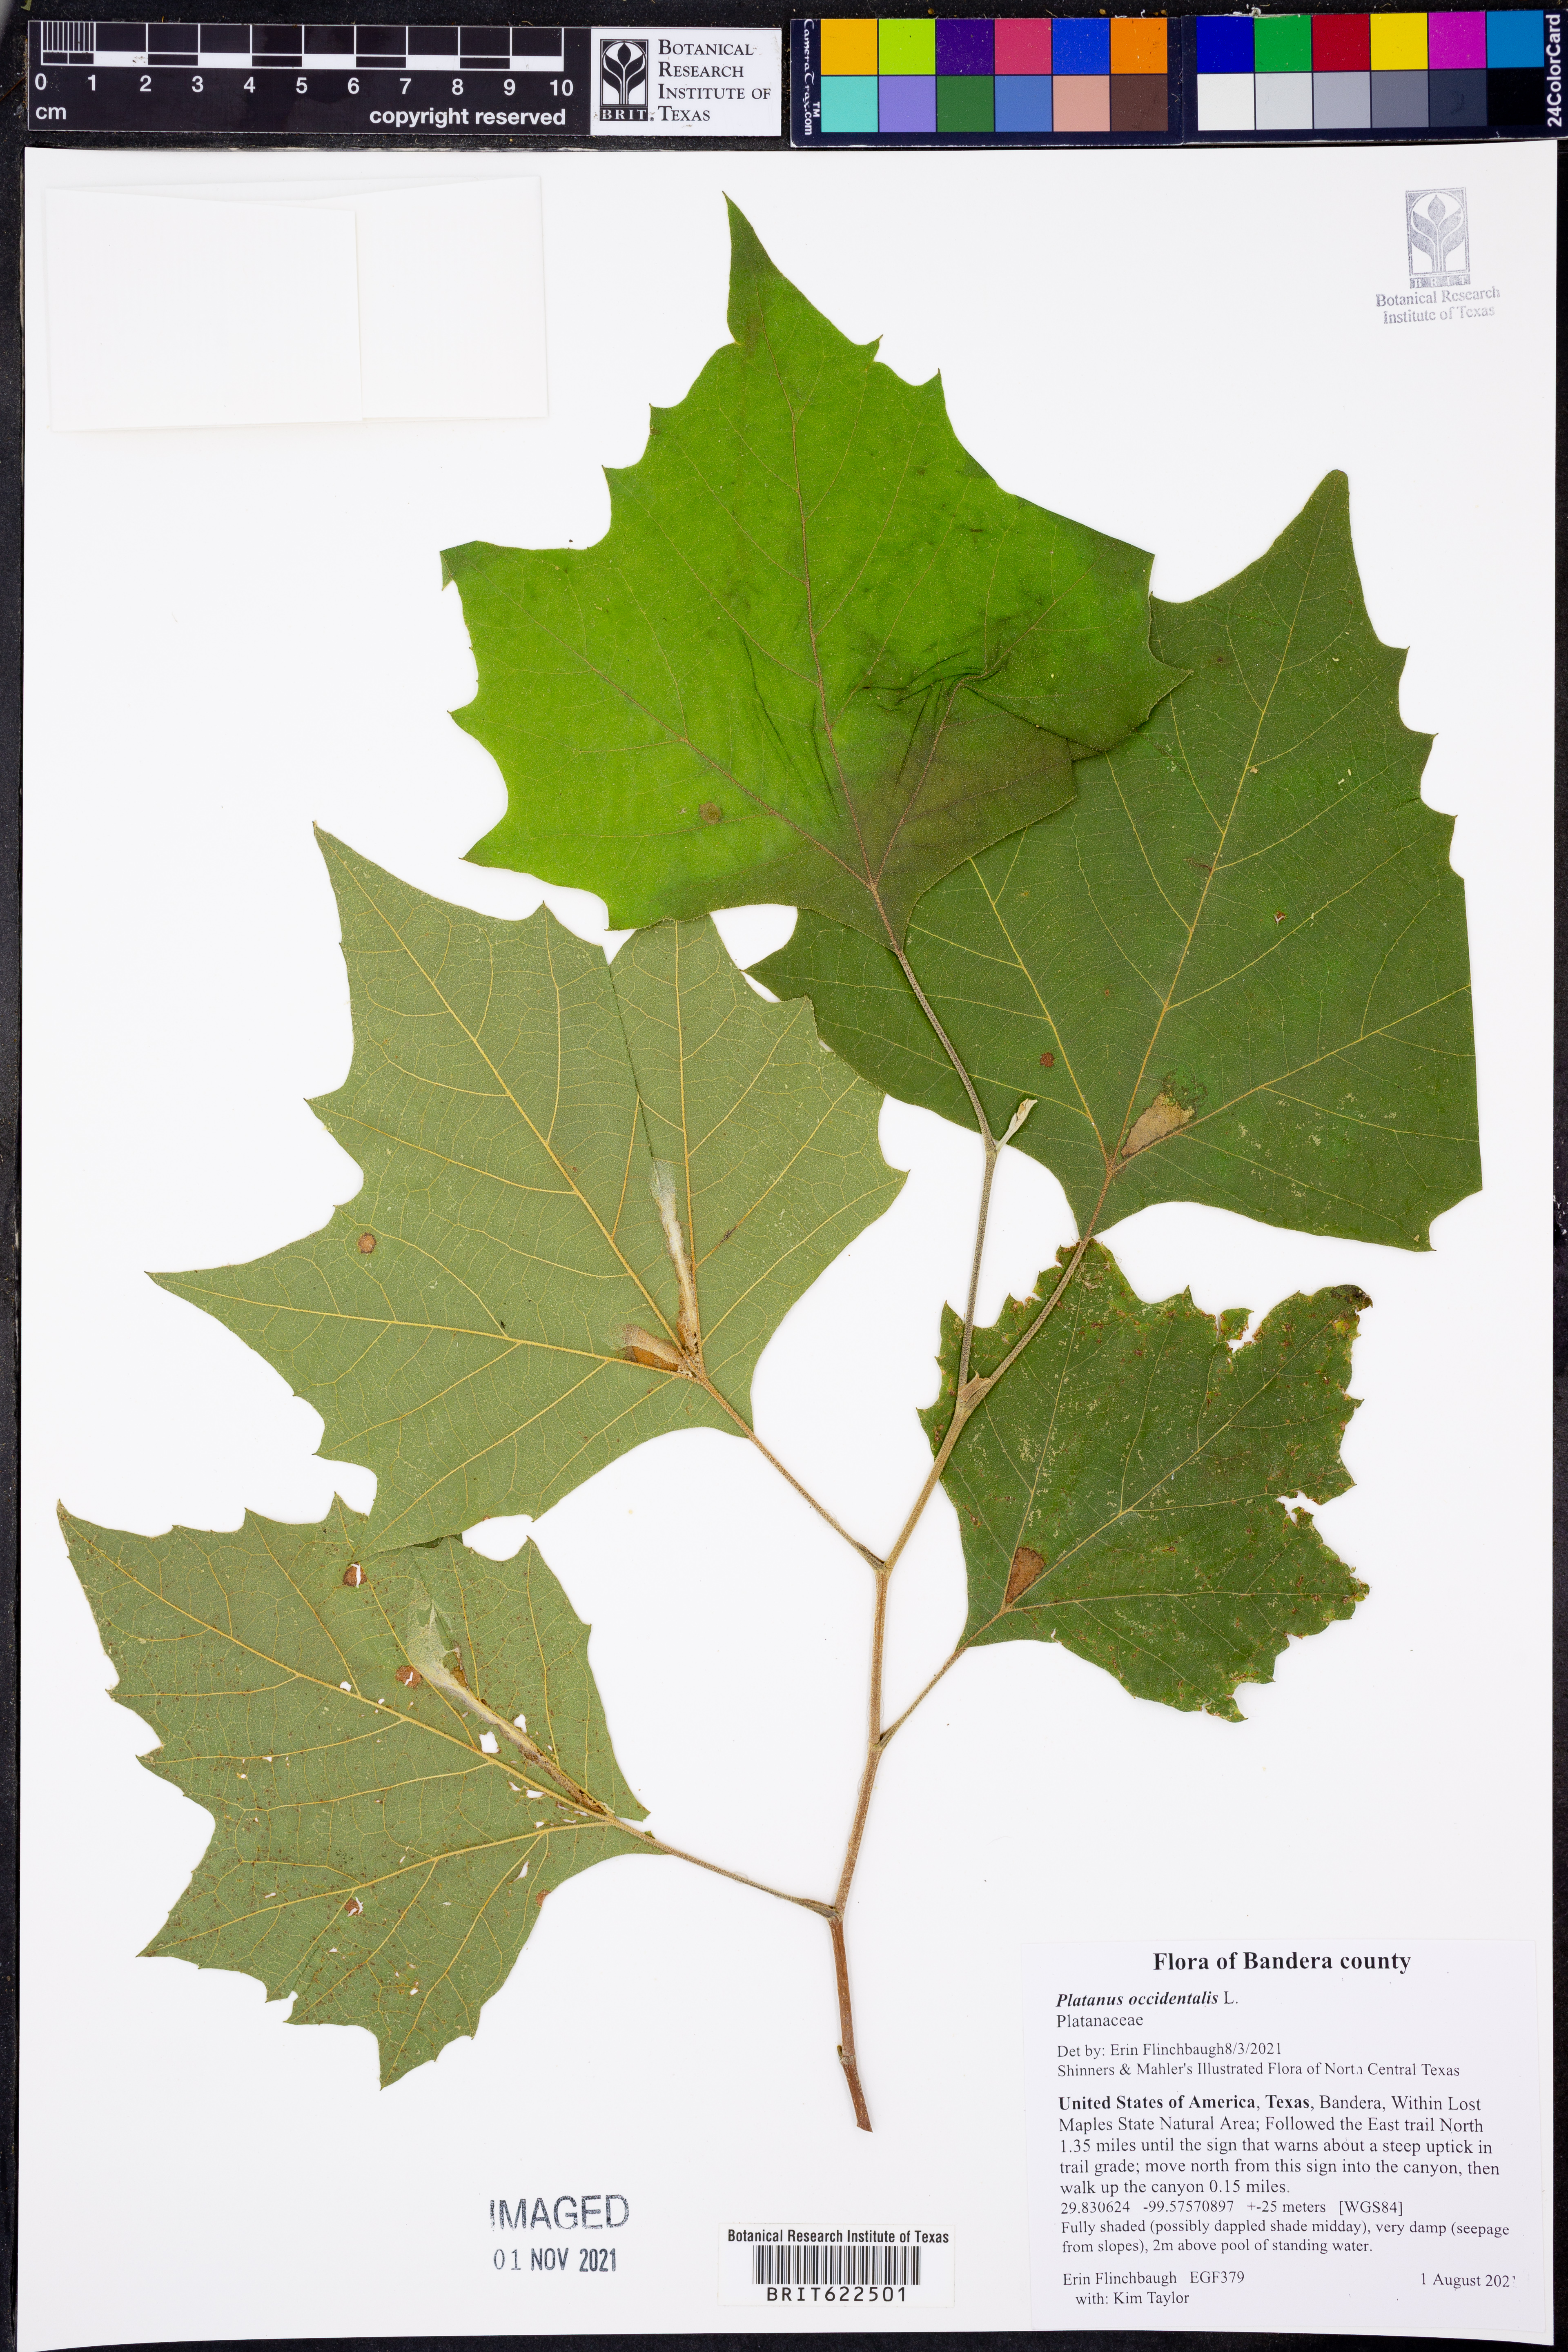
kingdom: Plantae
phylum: Tracheophyta
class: Magnoliopsida
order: Proteales
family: Platanaceae
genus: Platanus
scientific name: Platanus occidentalis
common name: American sycamore
